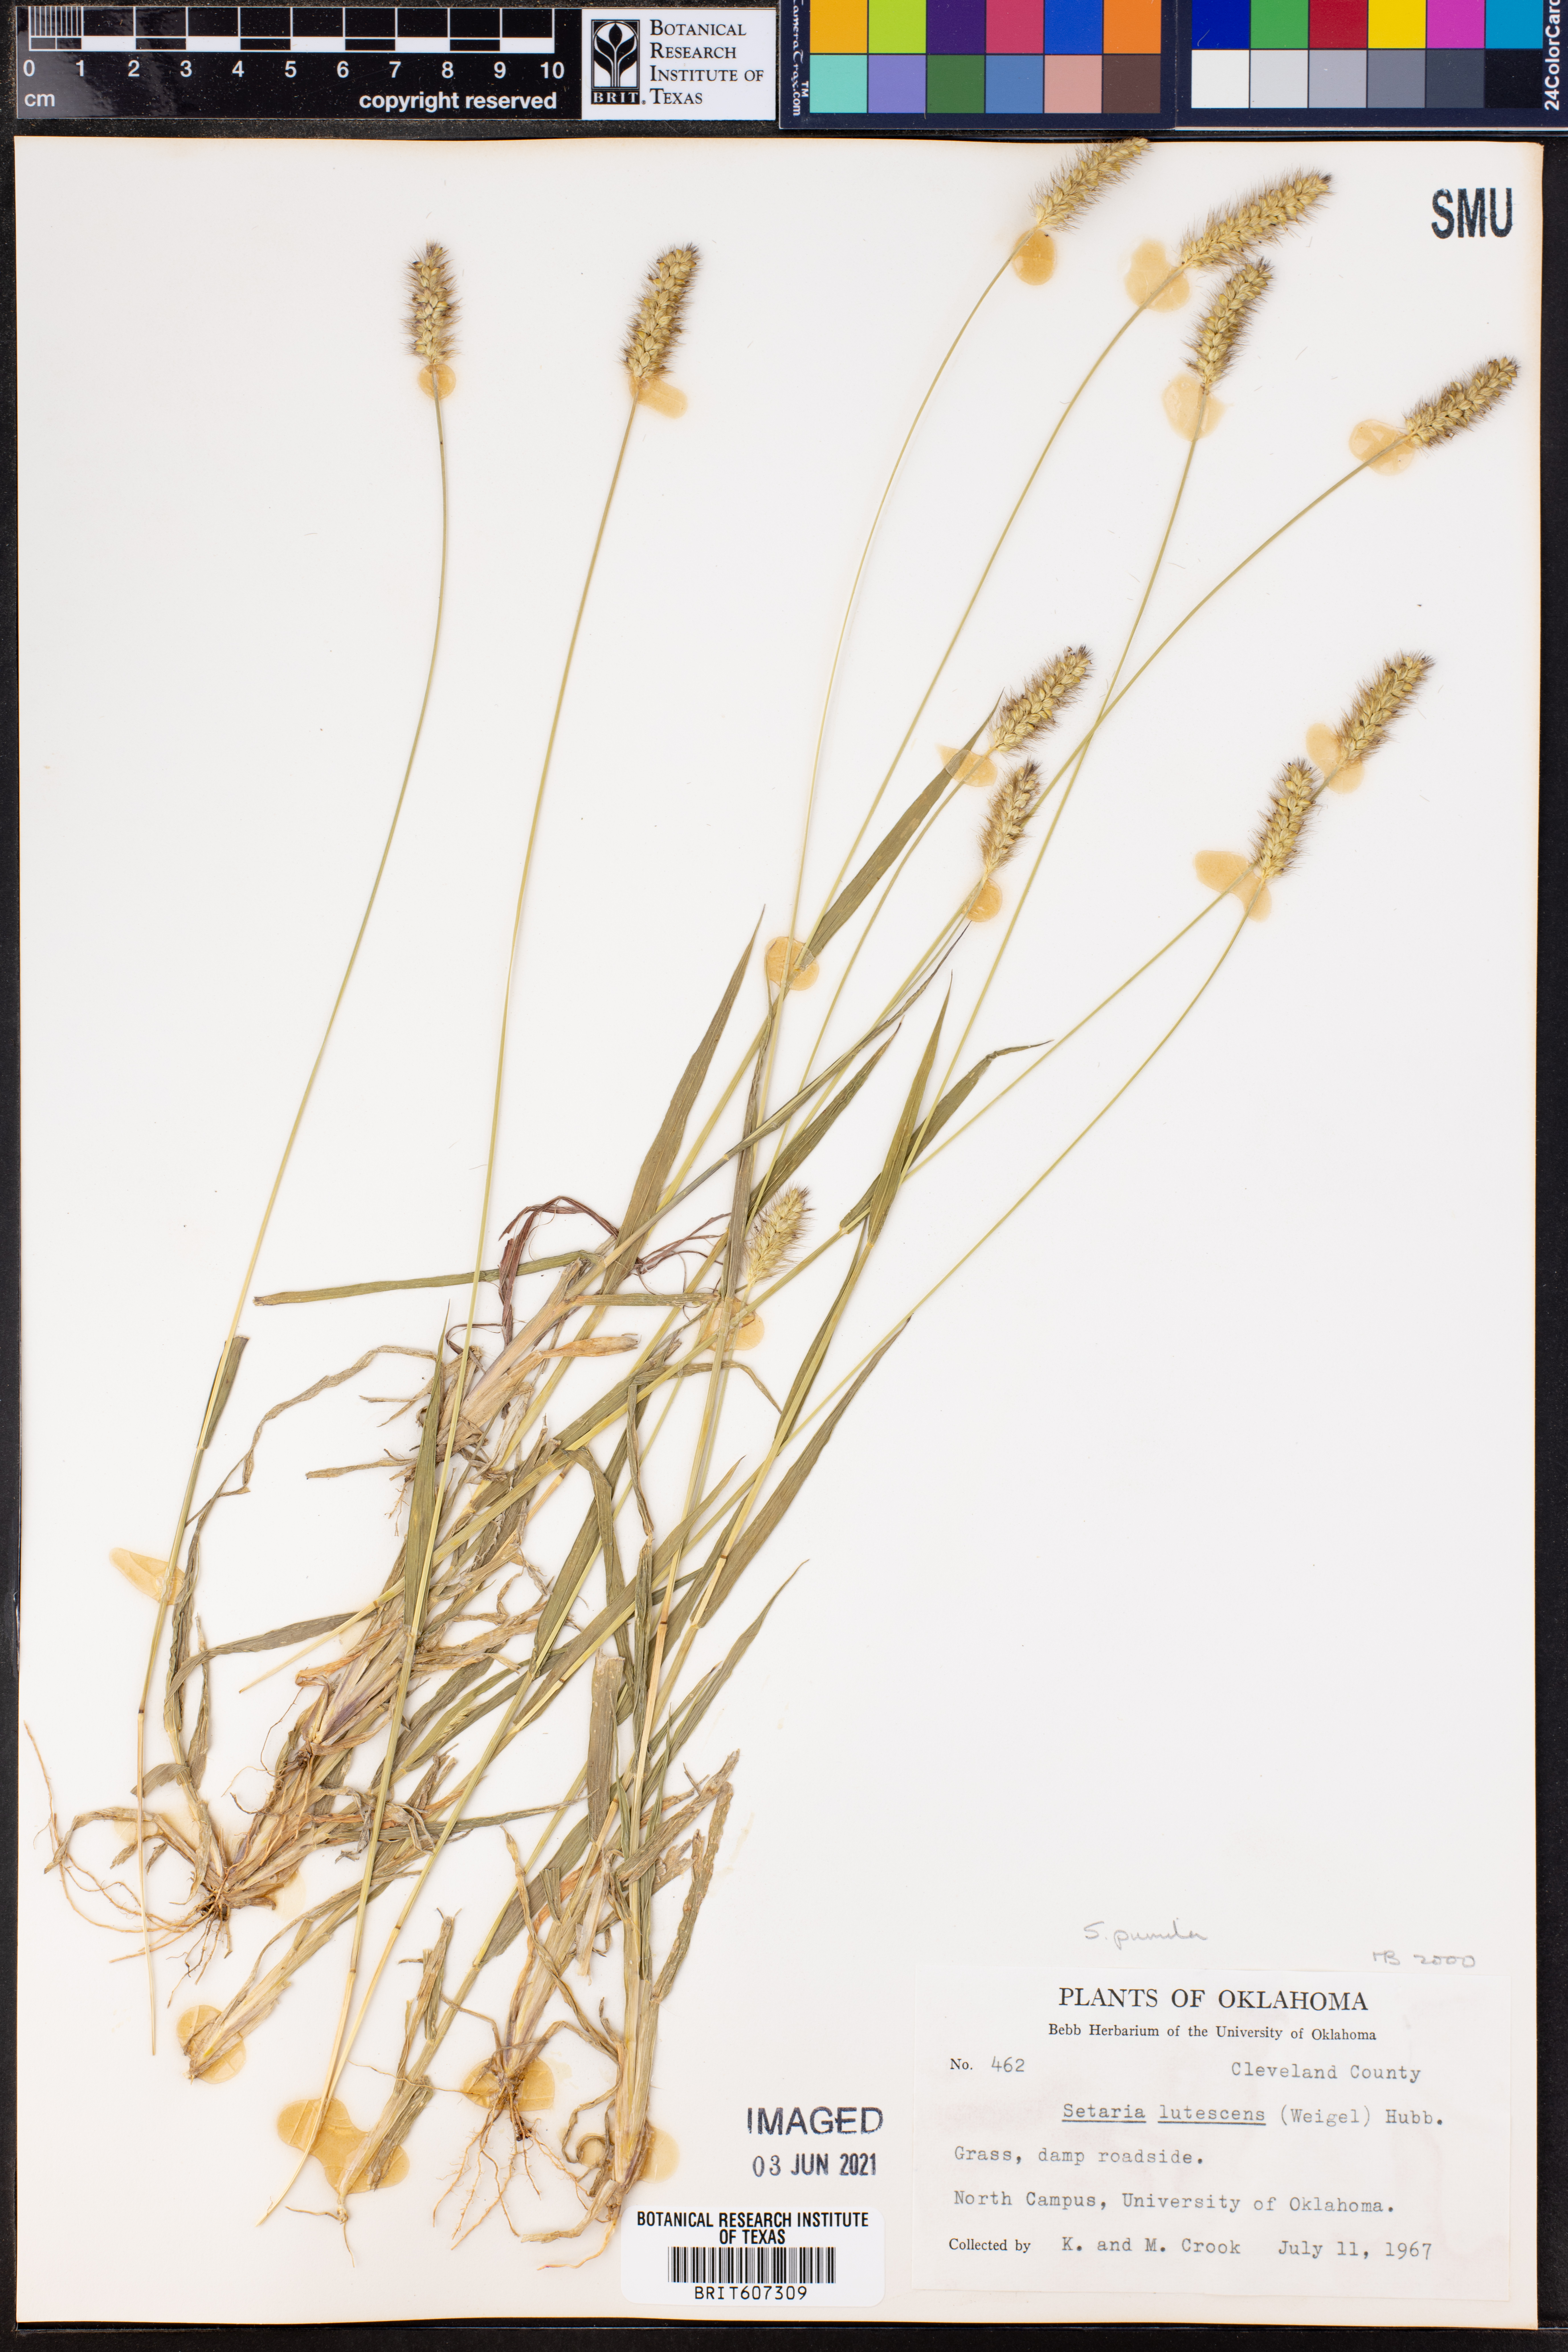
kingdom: Plantae
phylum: Tracheophyta
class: Liliopsida
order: Poales
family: Poaceae
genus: Setaria
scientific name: Setaria pumila
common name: Yellow bristle-grass
